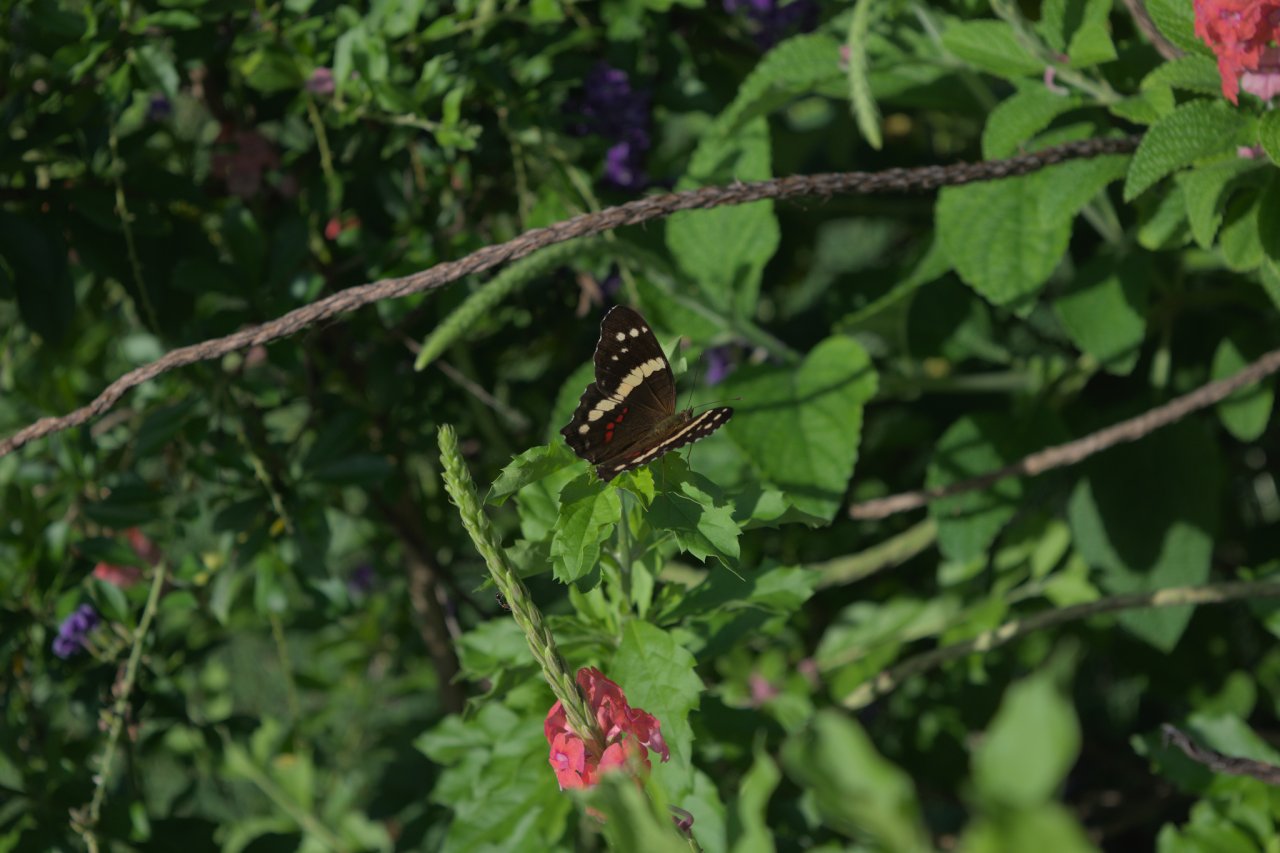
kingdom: Animalia
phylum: Arthropoda
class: Insecta
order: Lepidoptera
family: Nymphalidae
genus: Anartia
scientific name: Anartia fatima
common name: Banded Peacock
